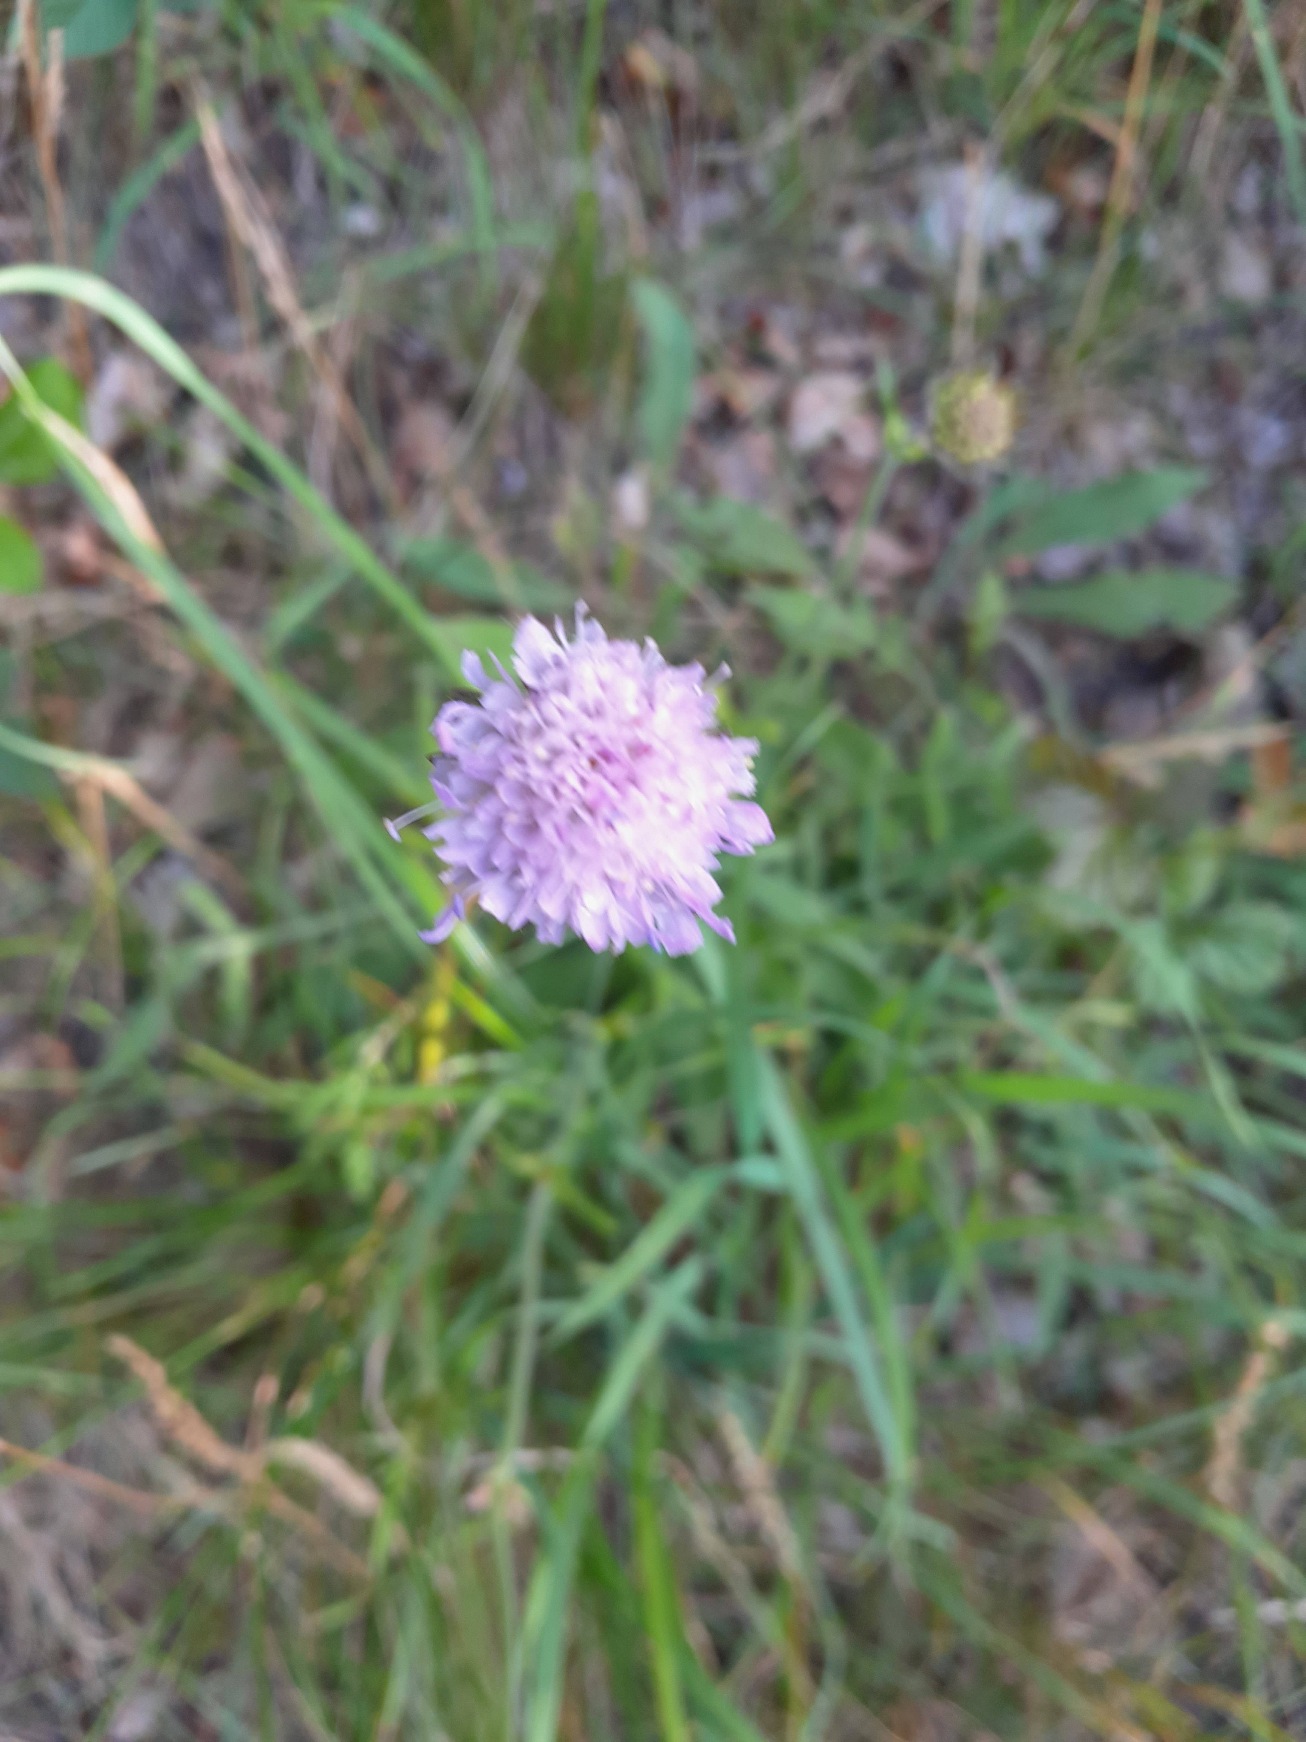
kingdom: Plantae
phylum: Tracheophyta
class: Magnoliopsida
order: Dipsacales
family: Caprifoliaceae
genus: Knautia
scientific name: Knautia arvensis
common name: Blåhat
